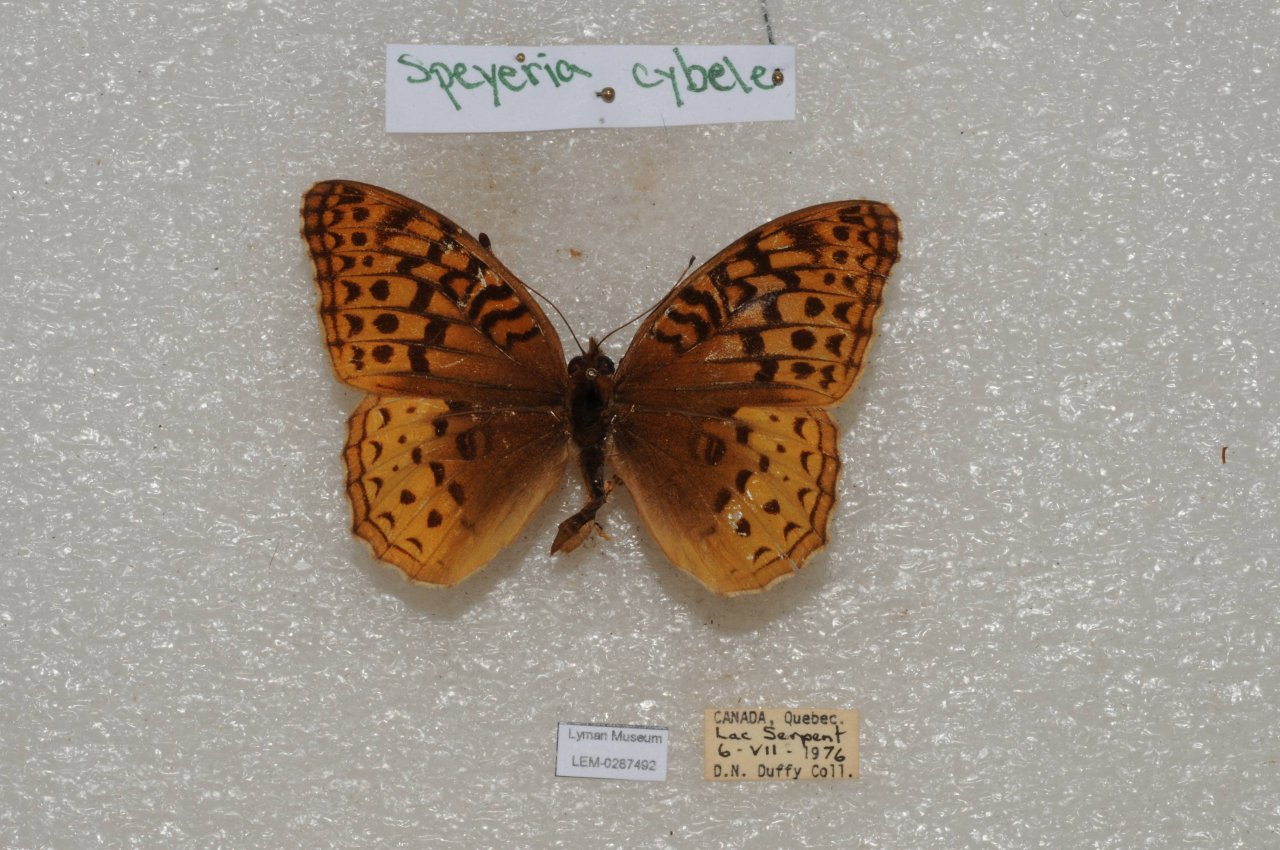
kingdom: Animalia
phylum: Arthropoda
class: Insecta
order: Lepidoptera
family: Nymphalidae
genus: Speyeria
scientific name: Speyeria cybele
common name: Great Spangled Fritillary
